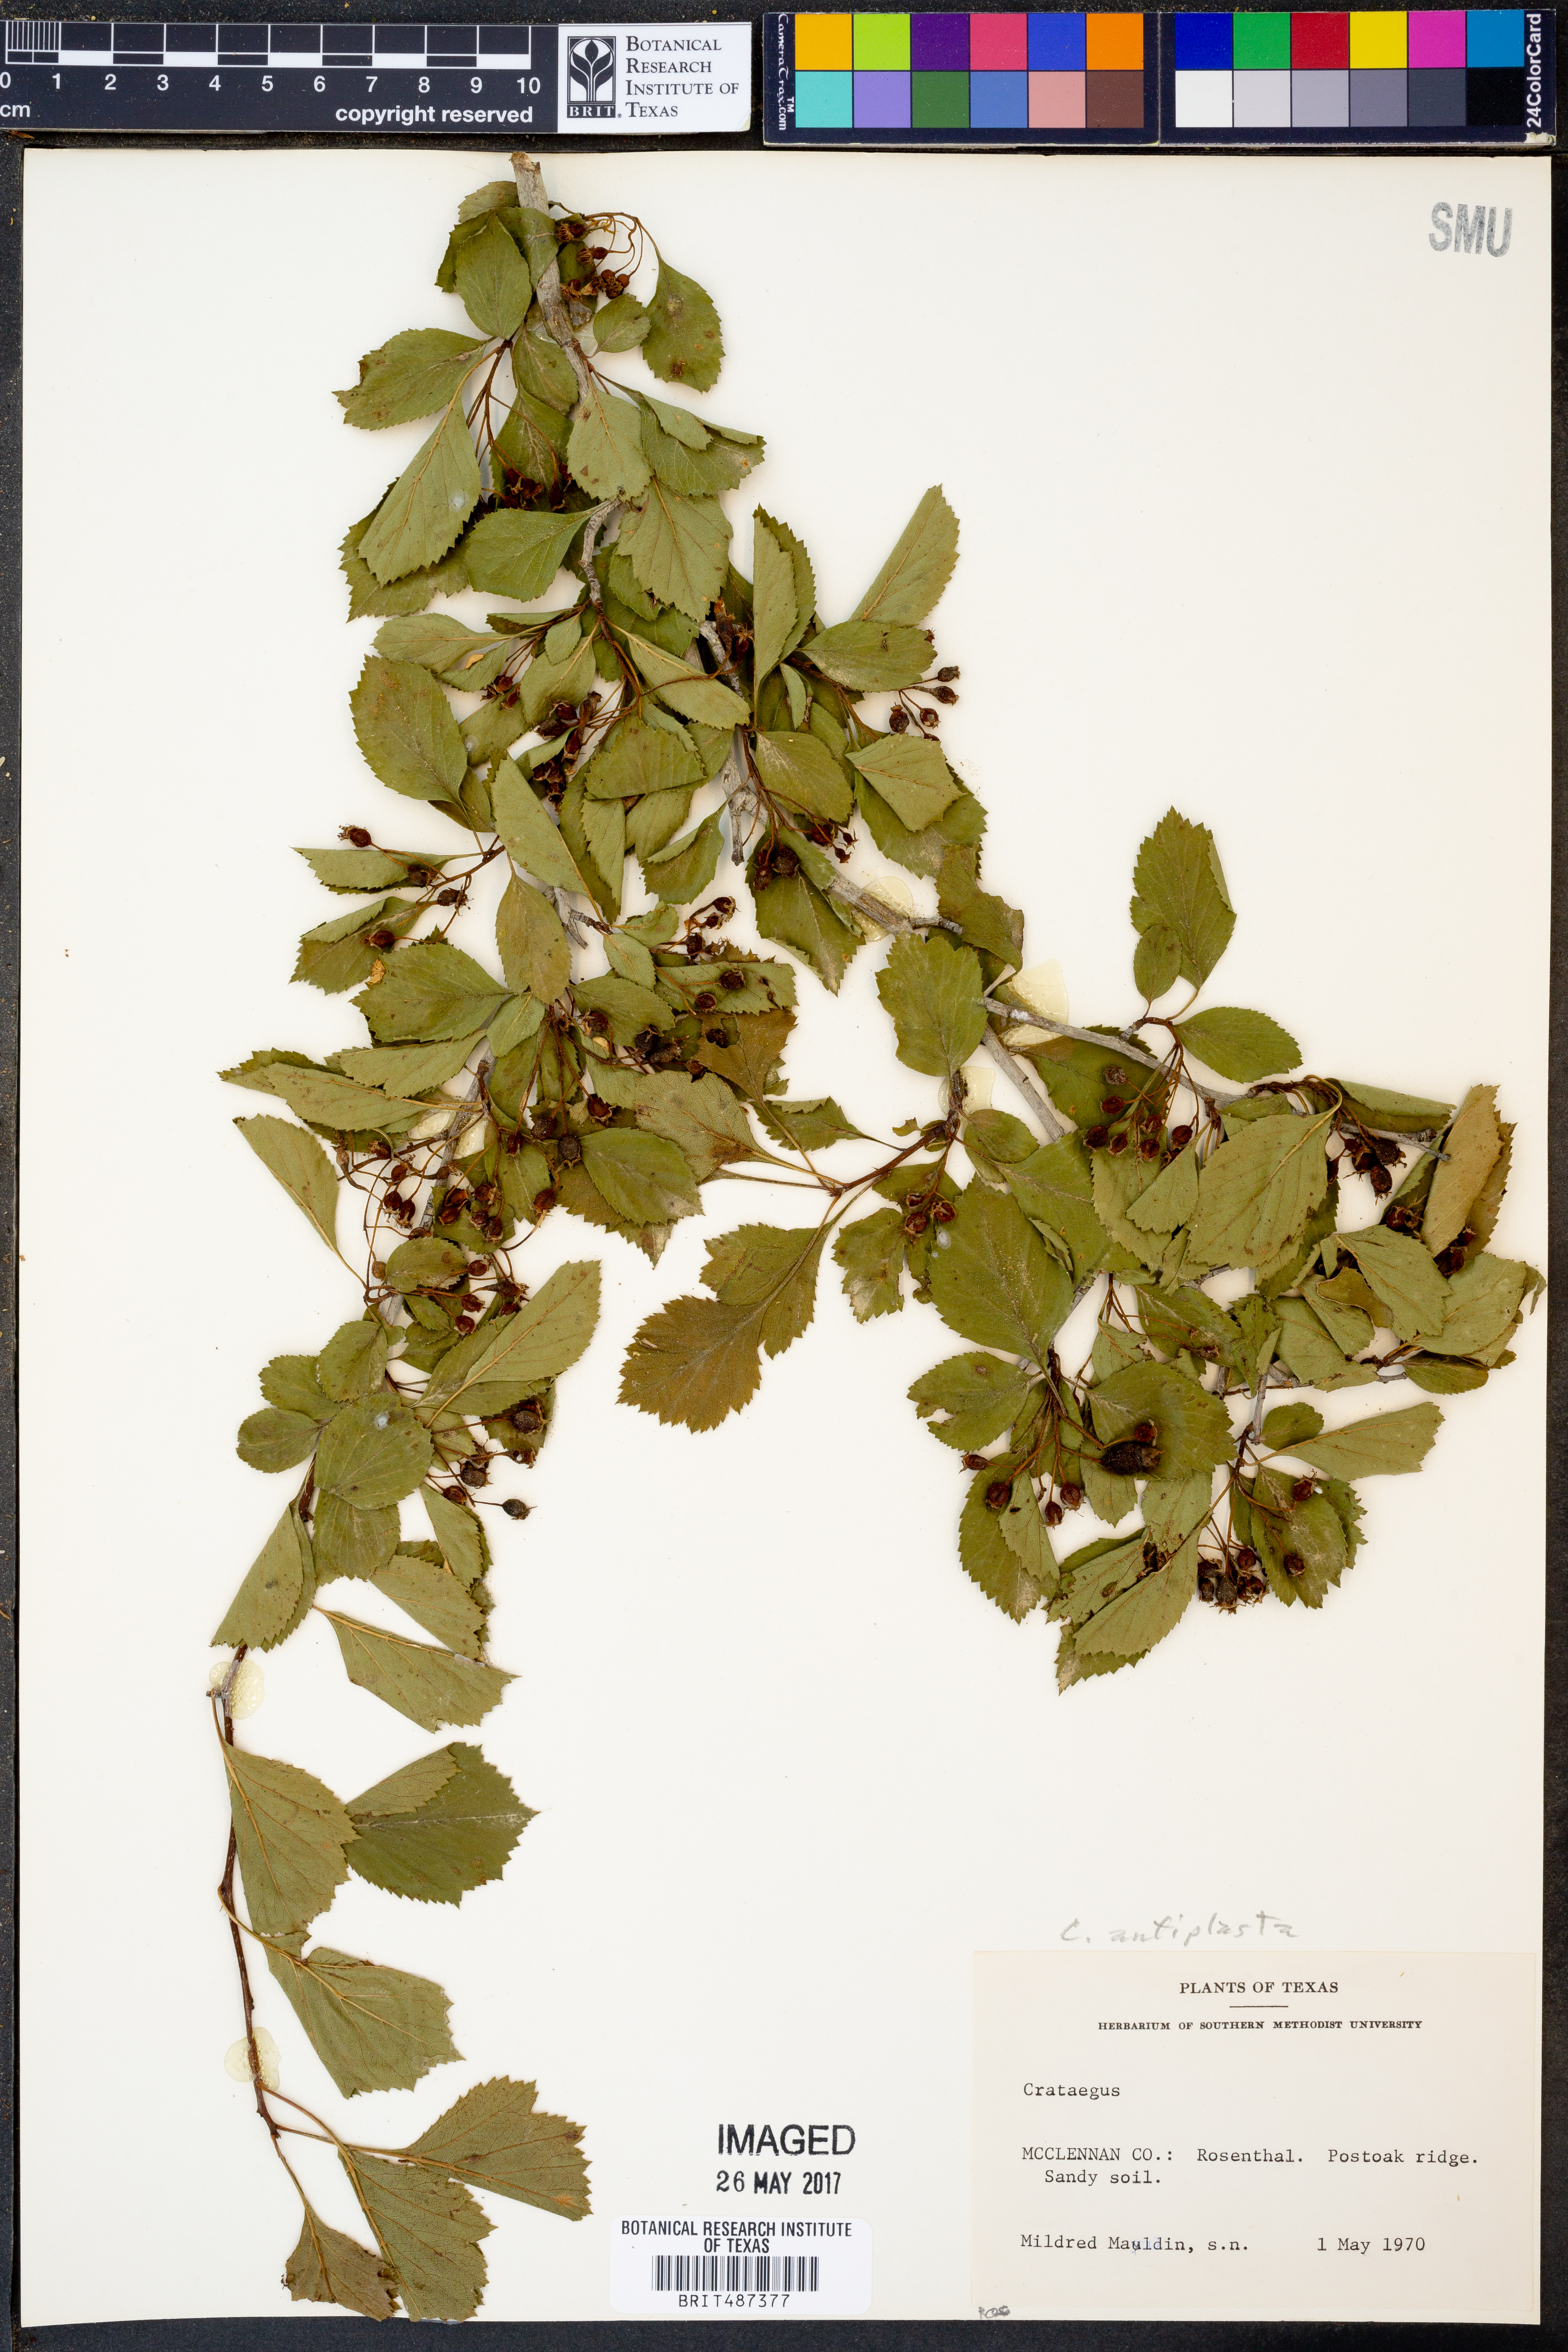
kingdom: Plantae
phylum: Tracheophyta
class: Magnoliopsida
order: Rosales
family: Rosaceae
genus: Crataegus
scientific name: Crataegus anamesa
